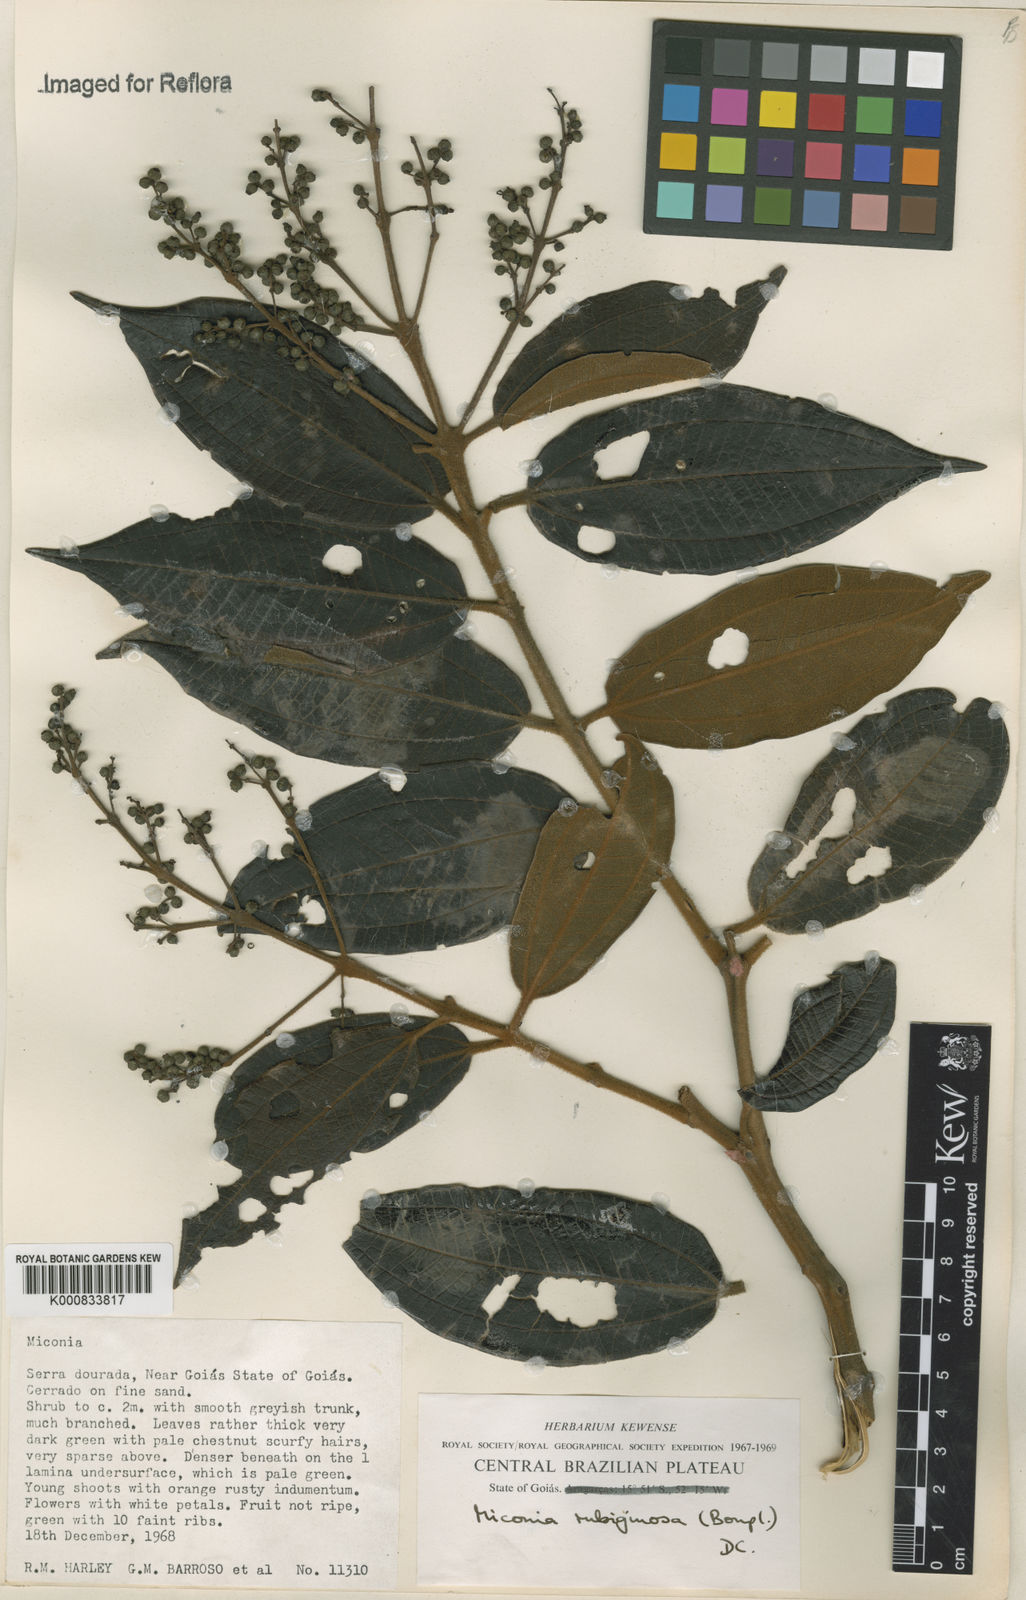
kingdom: Plantae
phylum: Tracheophyta
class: Magnoliopsida
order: Myrtales
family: Melastomataceae
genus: Miconia
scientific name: Miconia rubiginosa
